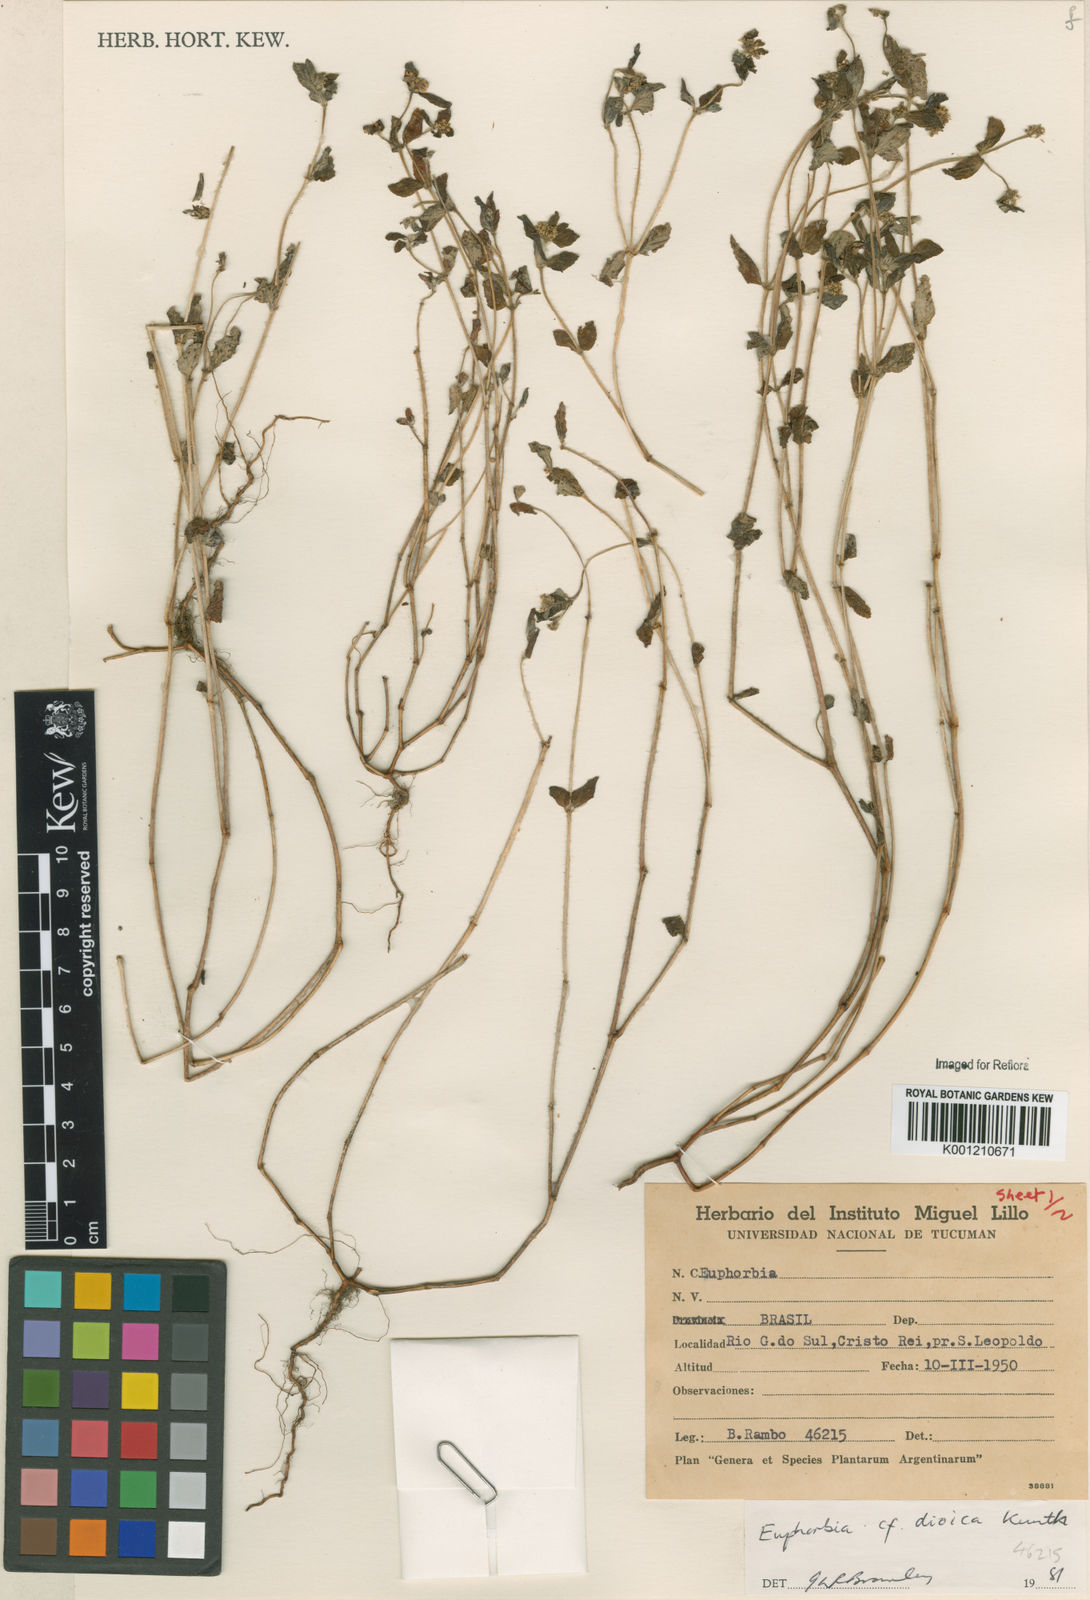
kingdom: Plantae
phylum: Tracheophyta
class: Magnoliopsida
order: Malpighiales
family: Euphorbiaceae
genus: Euphorbia
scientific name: Euphorbia
